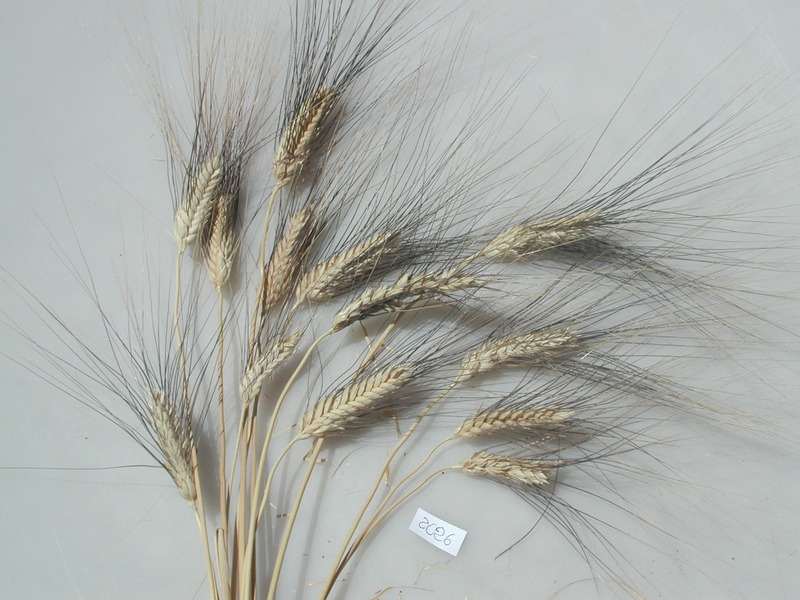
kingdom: Plantae
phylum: Tracheophyta
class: Liliopsida
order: Poales
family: Poaceae
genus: Triticum
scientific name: Triticum turgidum
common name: Wheat
